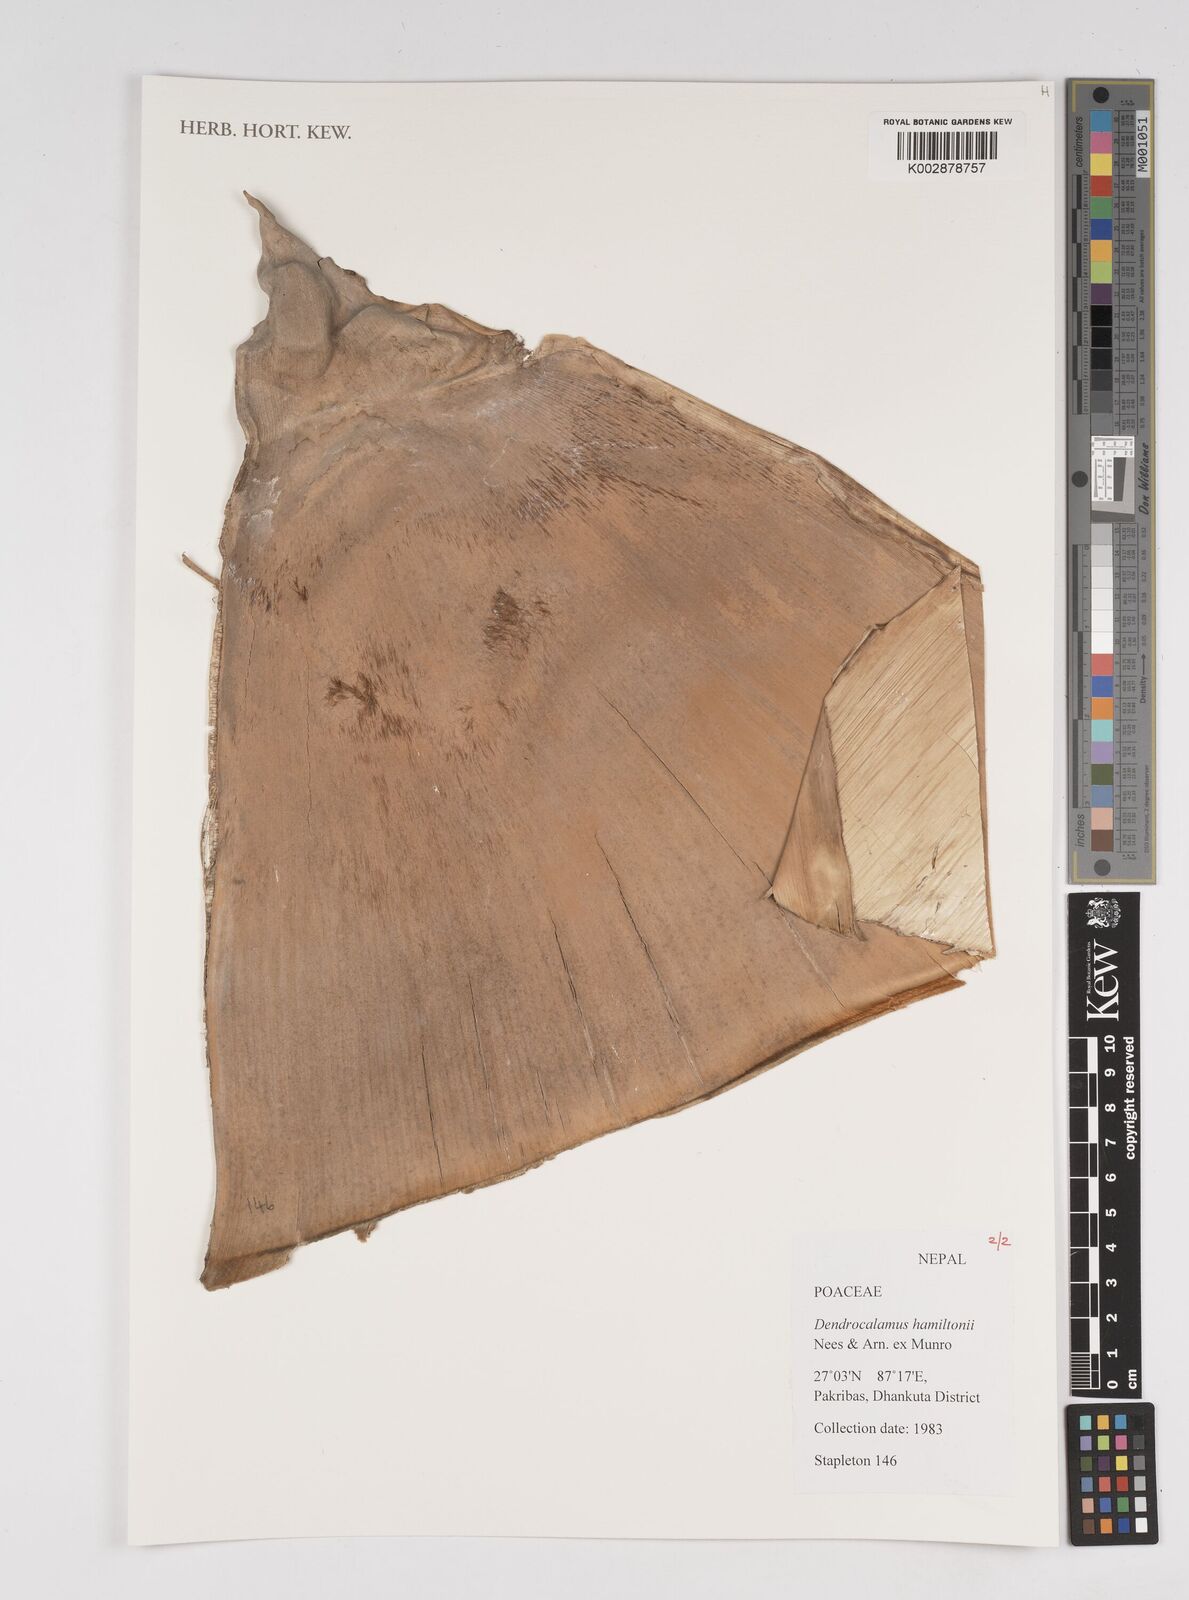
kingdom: Plantae
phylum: Tracheophyta
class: Liliopsida
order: Poales
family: Poaceae
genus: Dendrocalamus
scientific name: Dendrocalamus hamiltonii
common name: Tama bamboo
